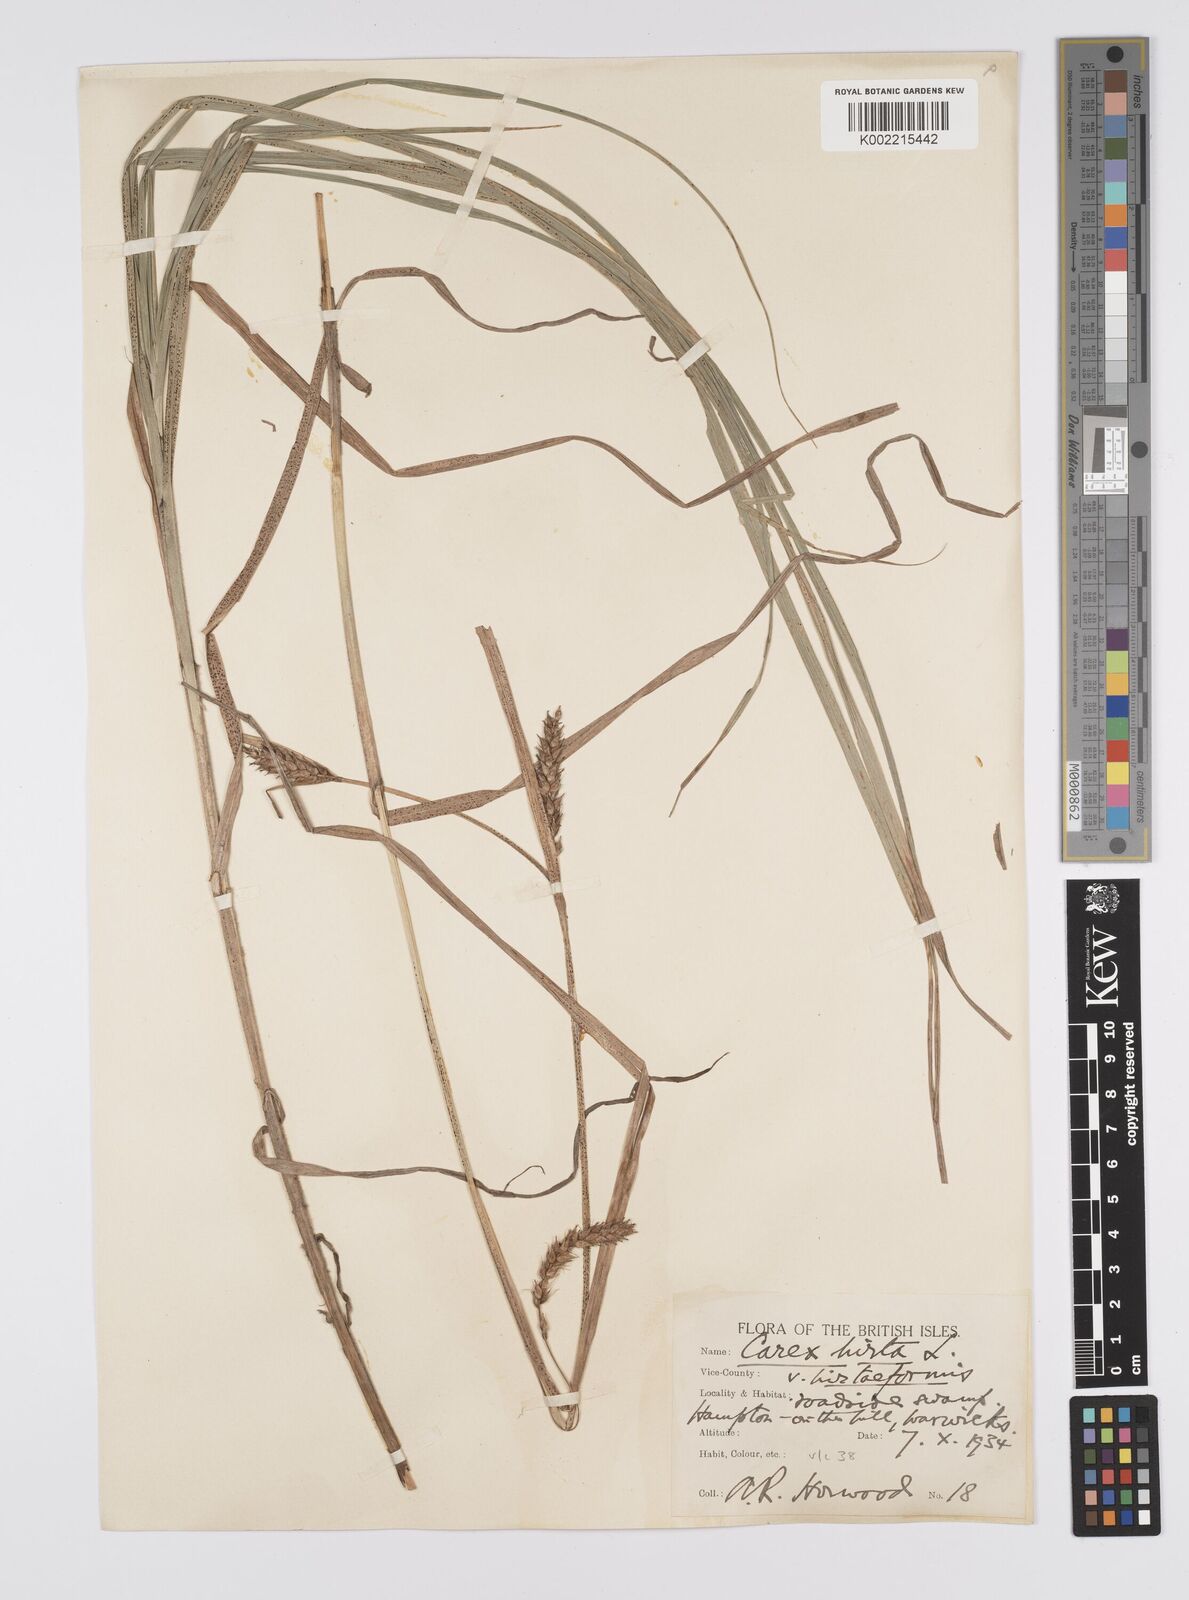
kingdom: Plantae
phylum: Tracheophyta
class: Liliopsida
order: Poales
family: Cyperaceae
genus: Carex
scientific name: Carex hirta
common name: Hairy sedge
